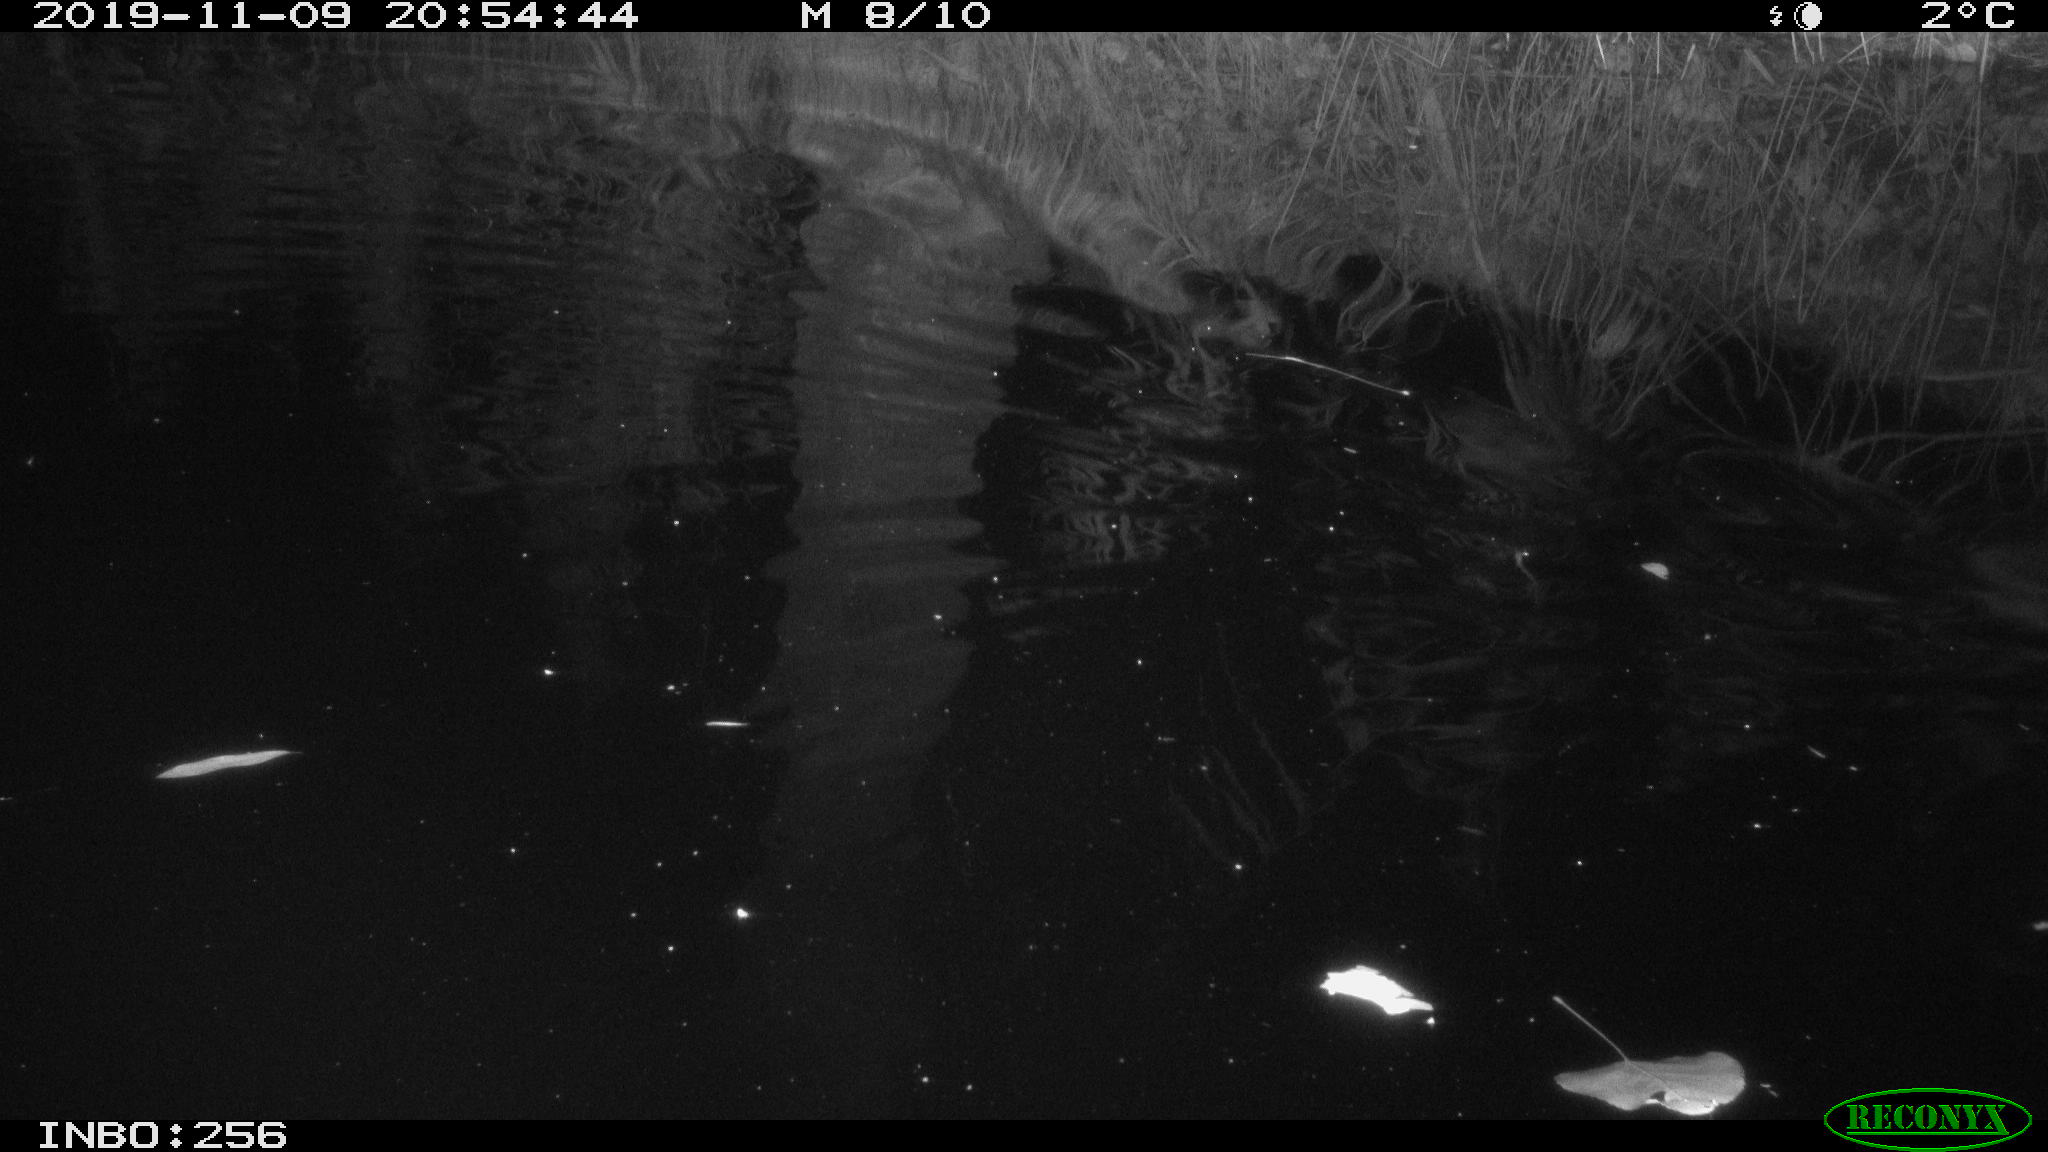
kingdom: Animalia
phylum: Chordata
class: Mammalia
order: Rodentia
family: Cricetidae
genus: Ondatra
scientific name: Ondatra zibethicus
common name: Muskrat
